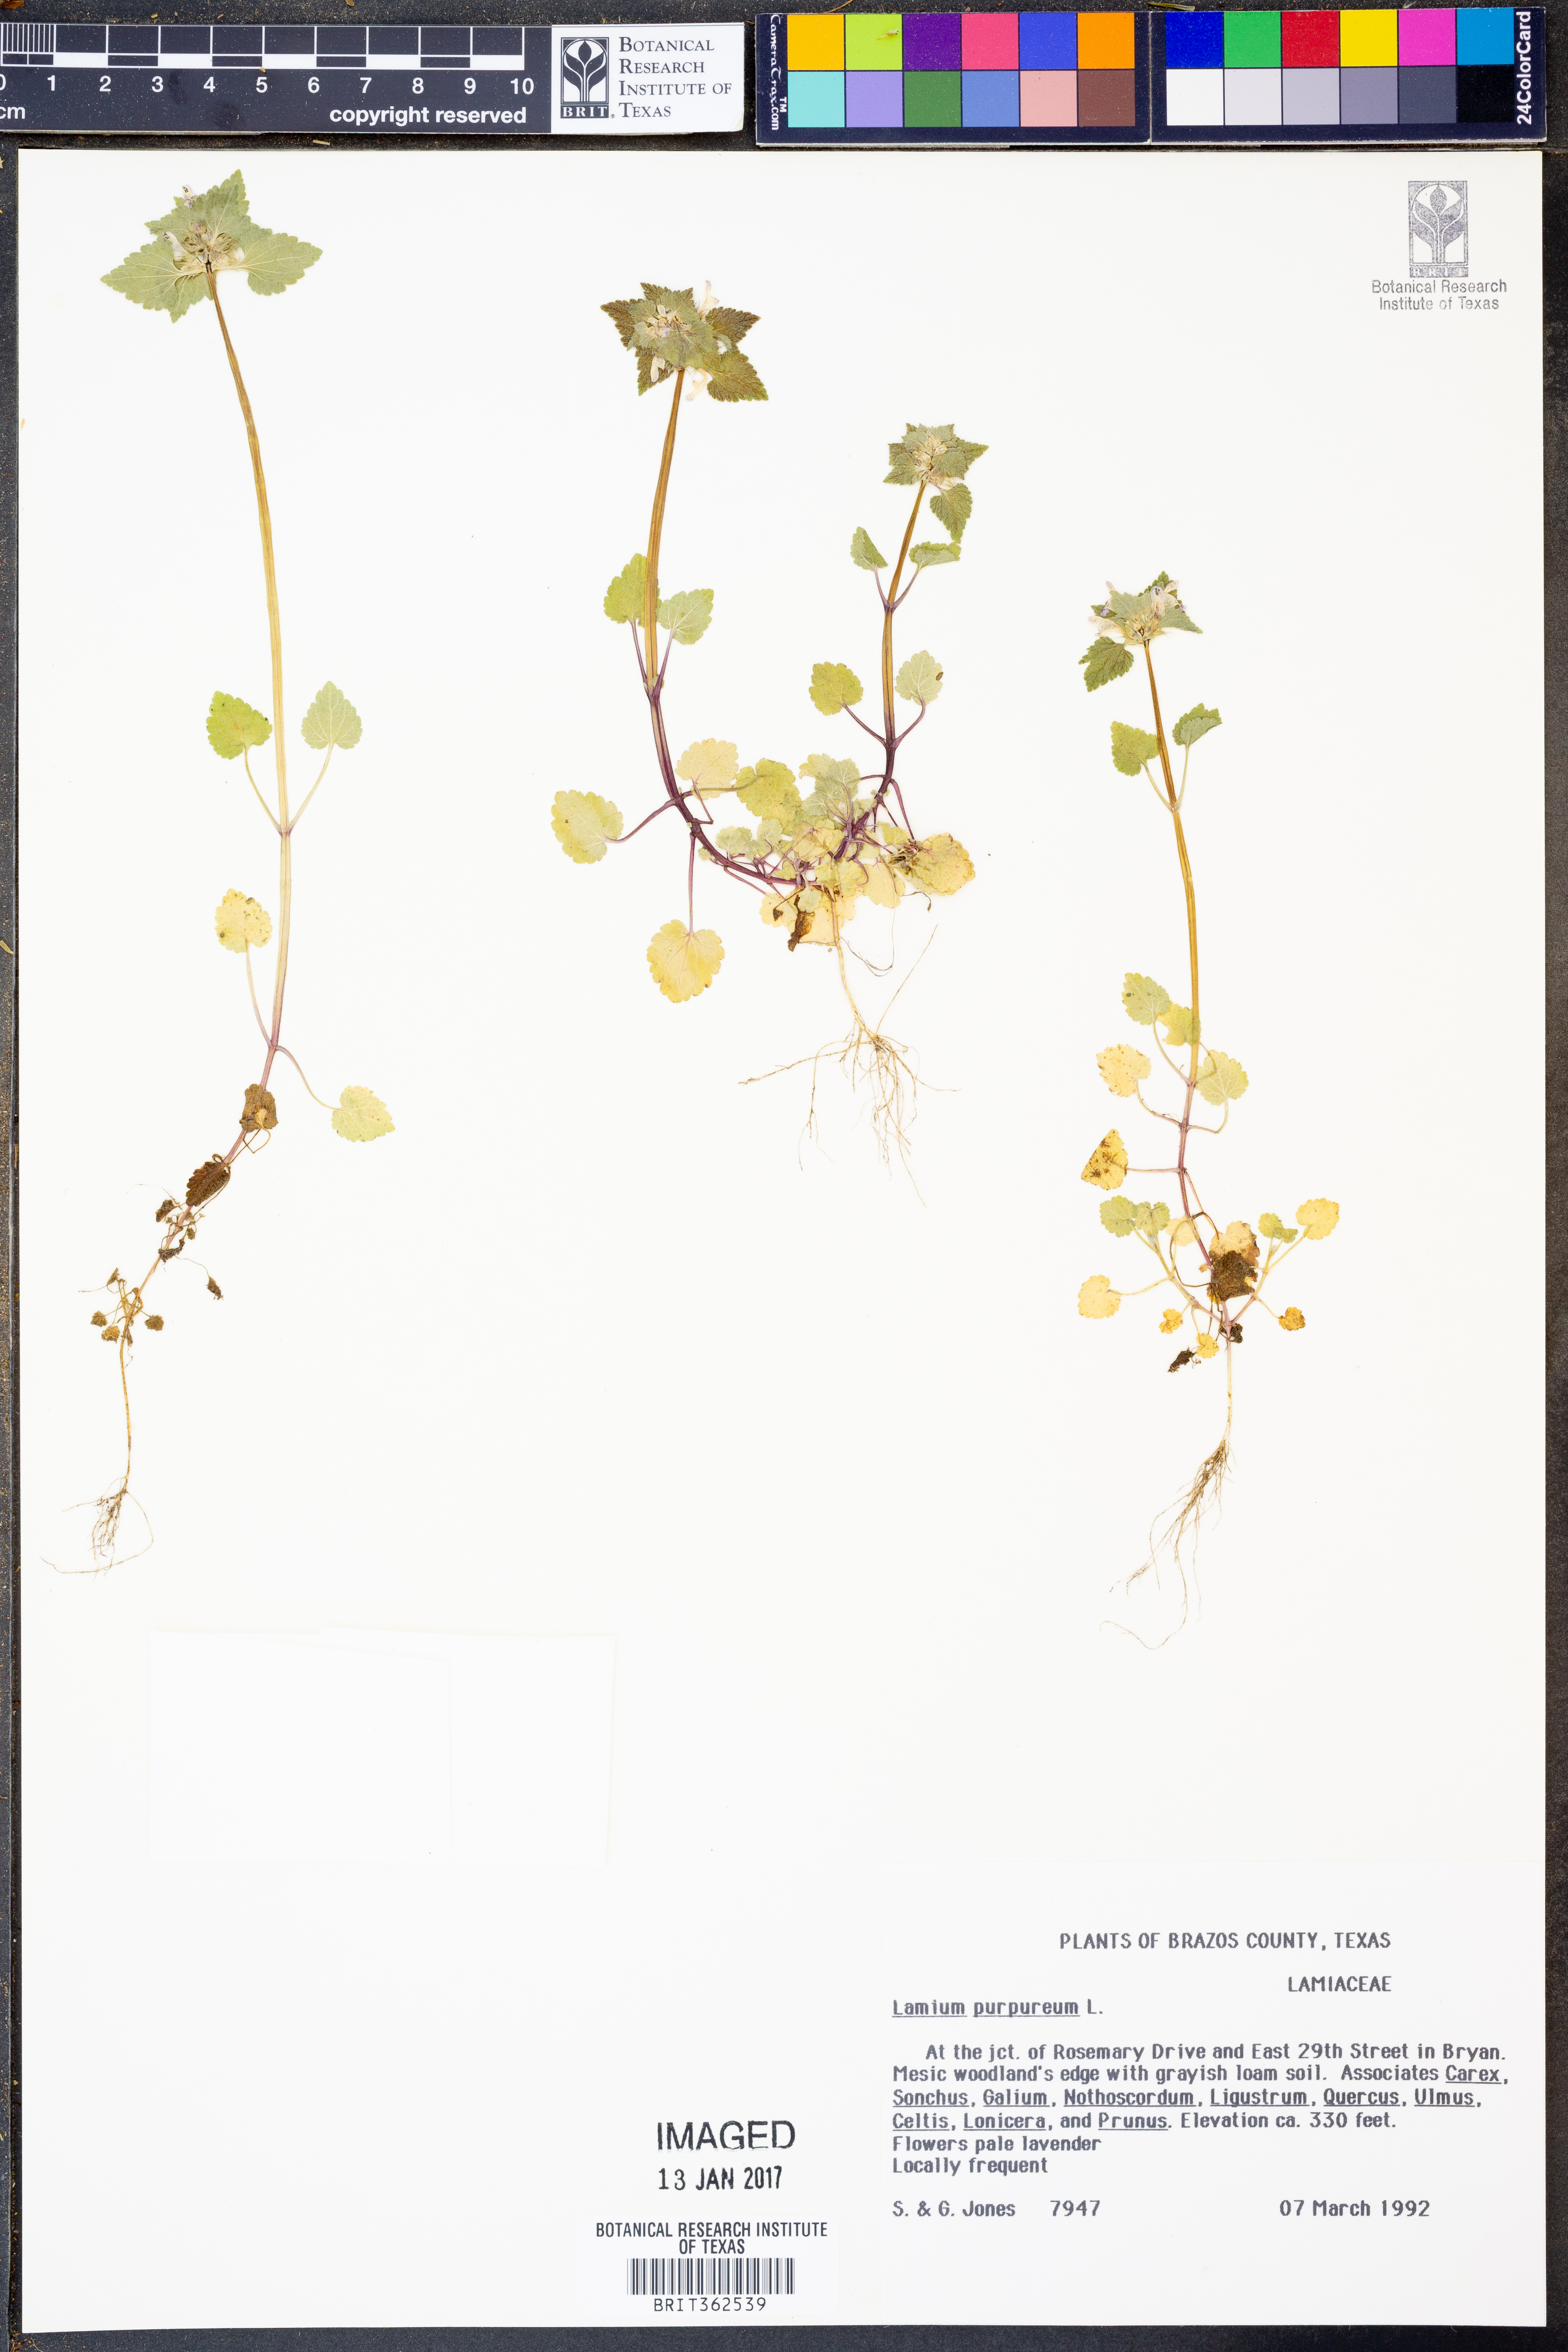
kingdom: Plantae
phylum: Tracheophyta
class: Magnoliopsida
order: Lamiales
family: Lamiaceae
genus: Lamium
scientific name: Lamium purpureum
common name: Red dead-nettle
